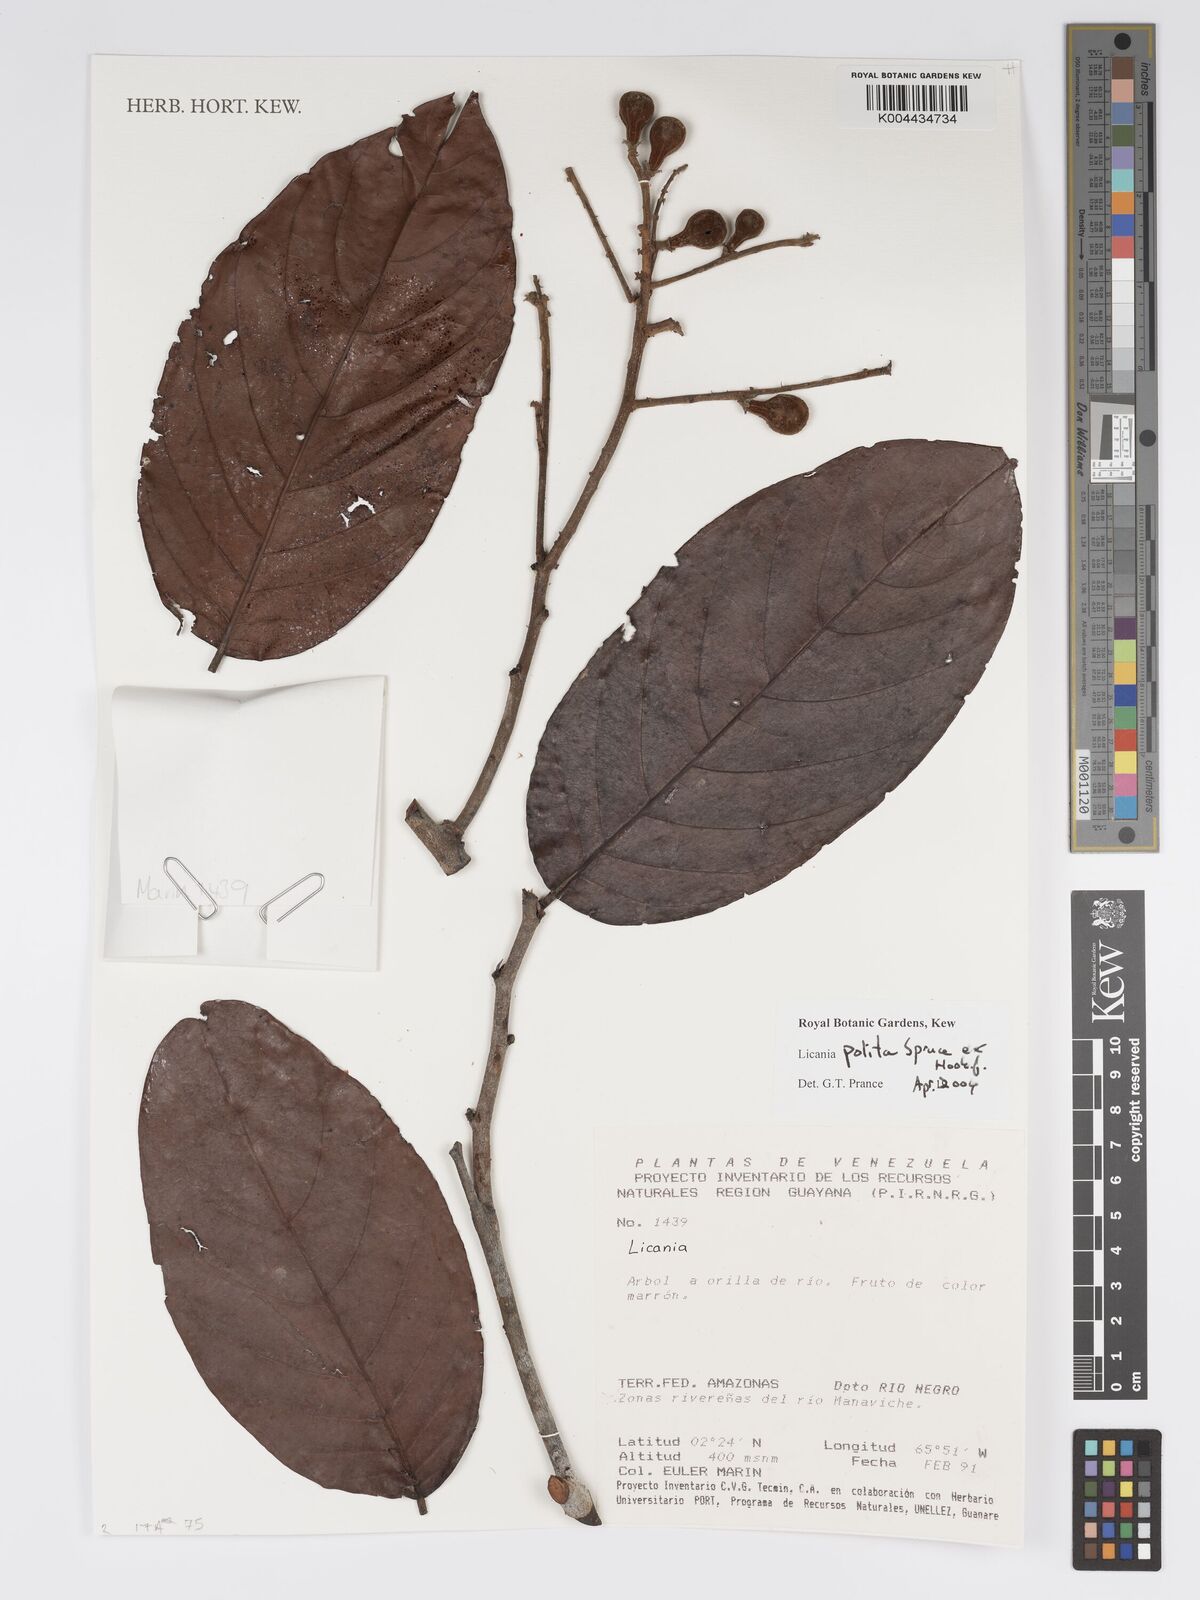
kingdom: Plantae
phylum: Tracheophyta
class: Magnoliopsida
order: Malpighiales
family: Chrysobalanaceae
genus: Licania
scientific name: Licania polita
